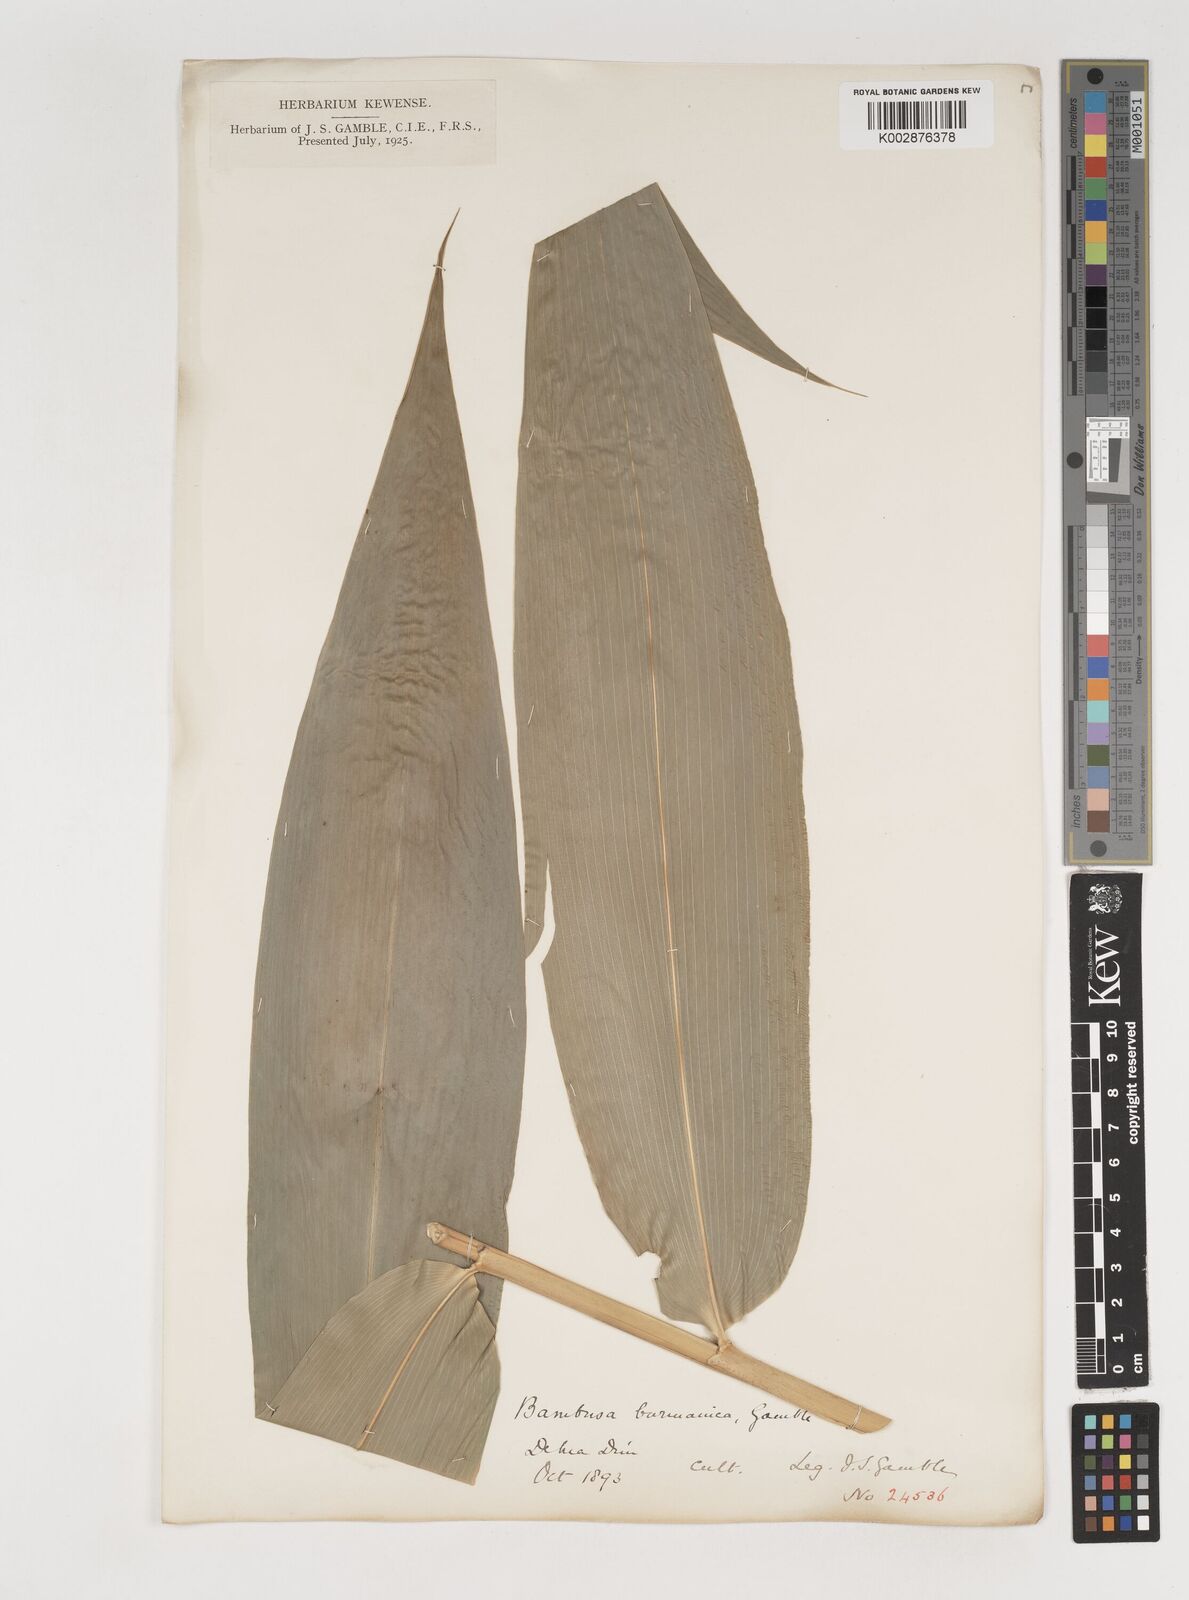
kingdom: Plantae
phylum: Tracheophyta
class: Liliopsida
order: Poales
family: Poaceae
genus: Bambusa
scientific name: Bambusa burmanica
